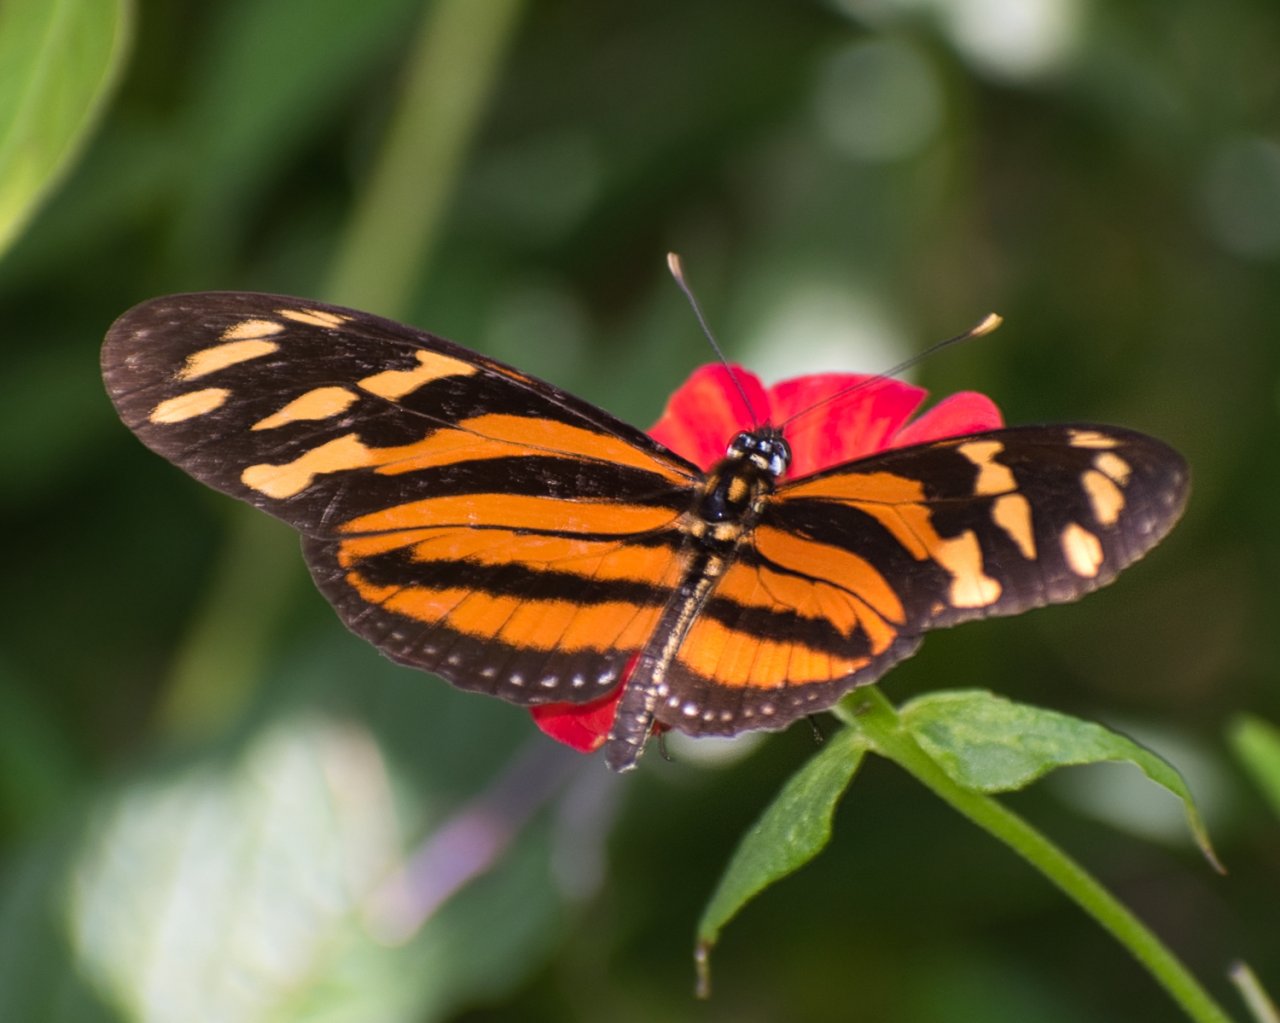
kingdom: Animalia
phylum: Arthropoda
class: Insecta
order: Lepidoptera
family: Nymphalidae
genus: Eueides
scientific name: Eueides isabella
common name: Isabella's Heliconian
